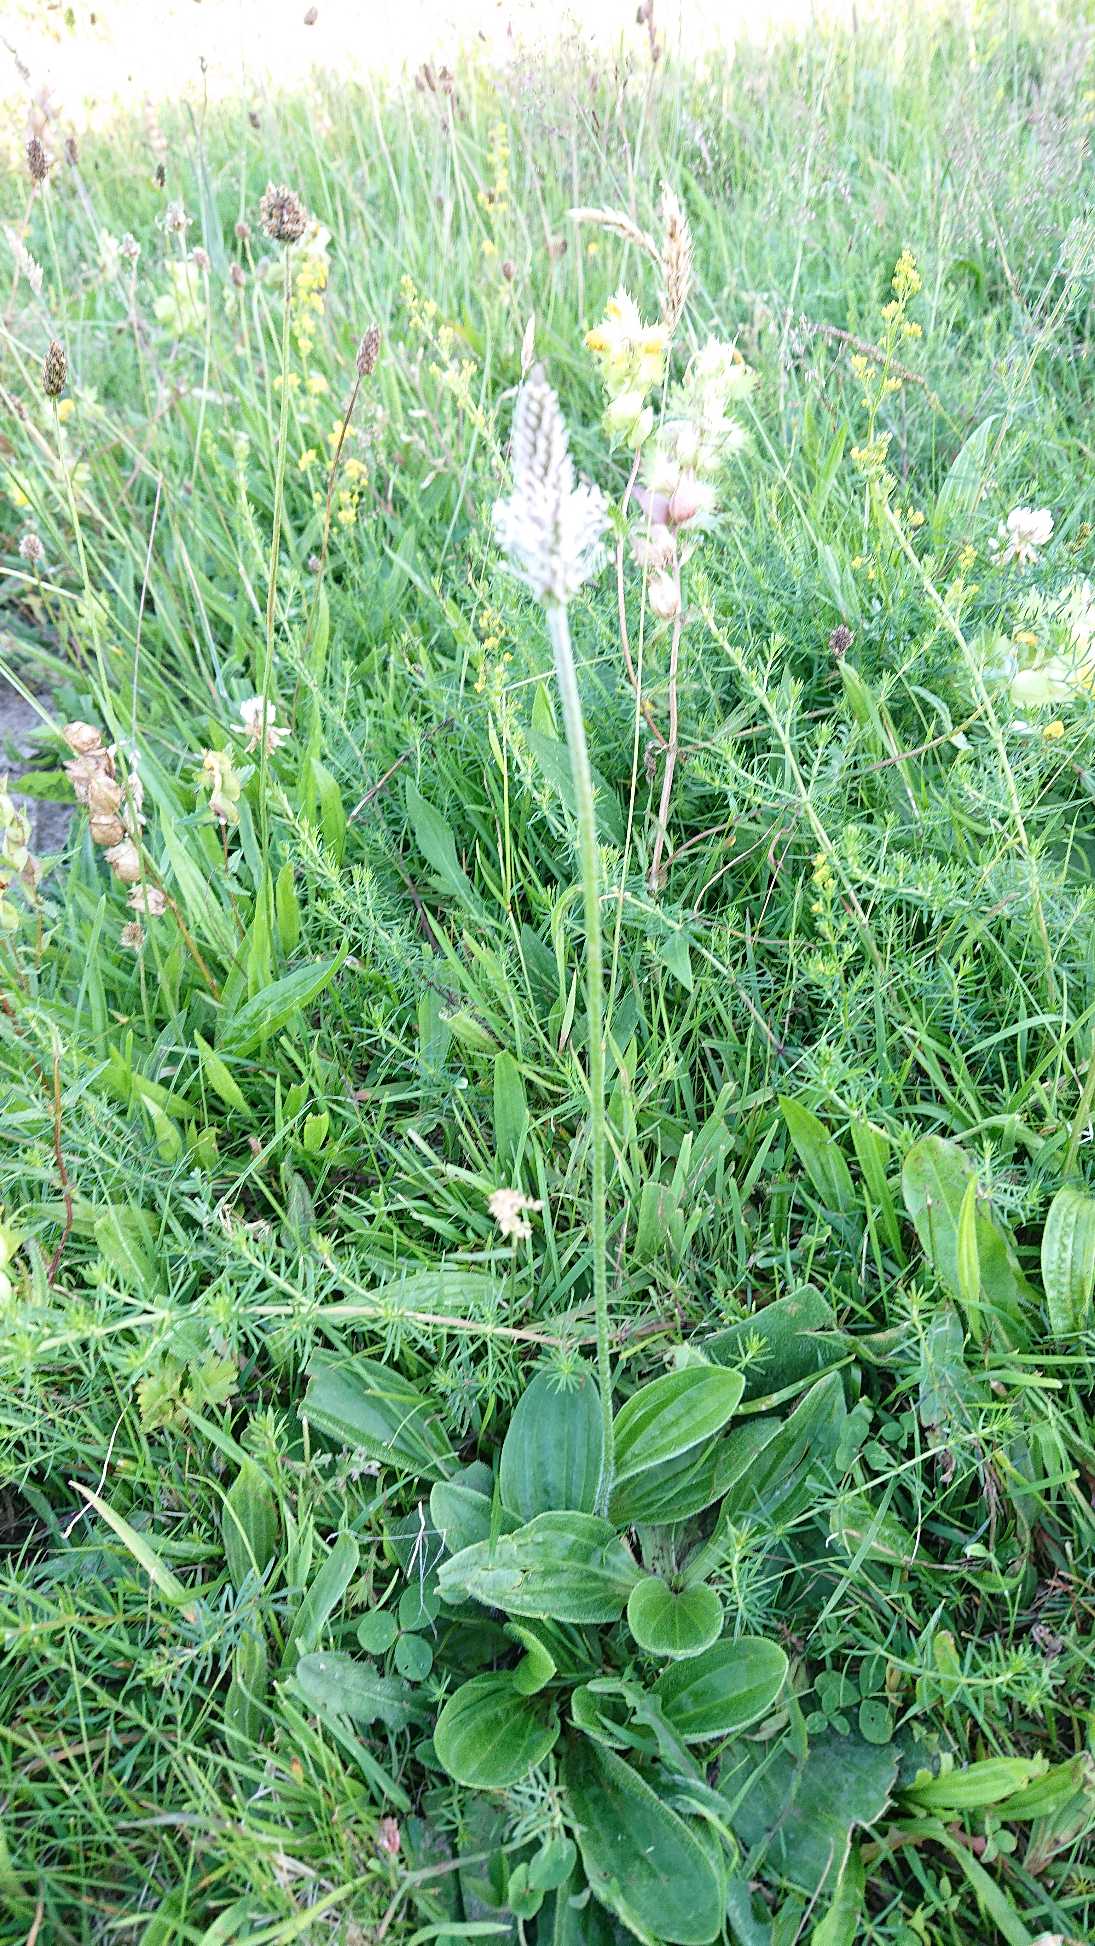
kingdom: Plantae
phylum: Tracheophyta
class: Magnoliopsida
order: Lamiales
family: Plantaginaceae
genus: Plantago
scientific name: Plantago media
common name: Dunet vejbred
